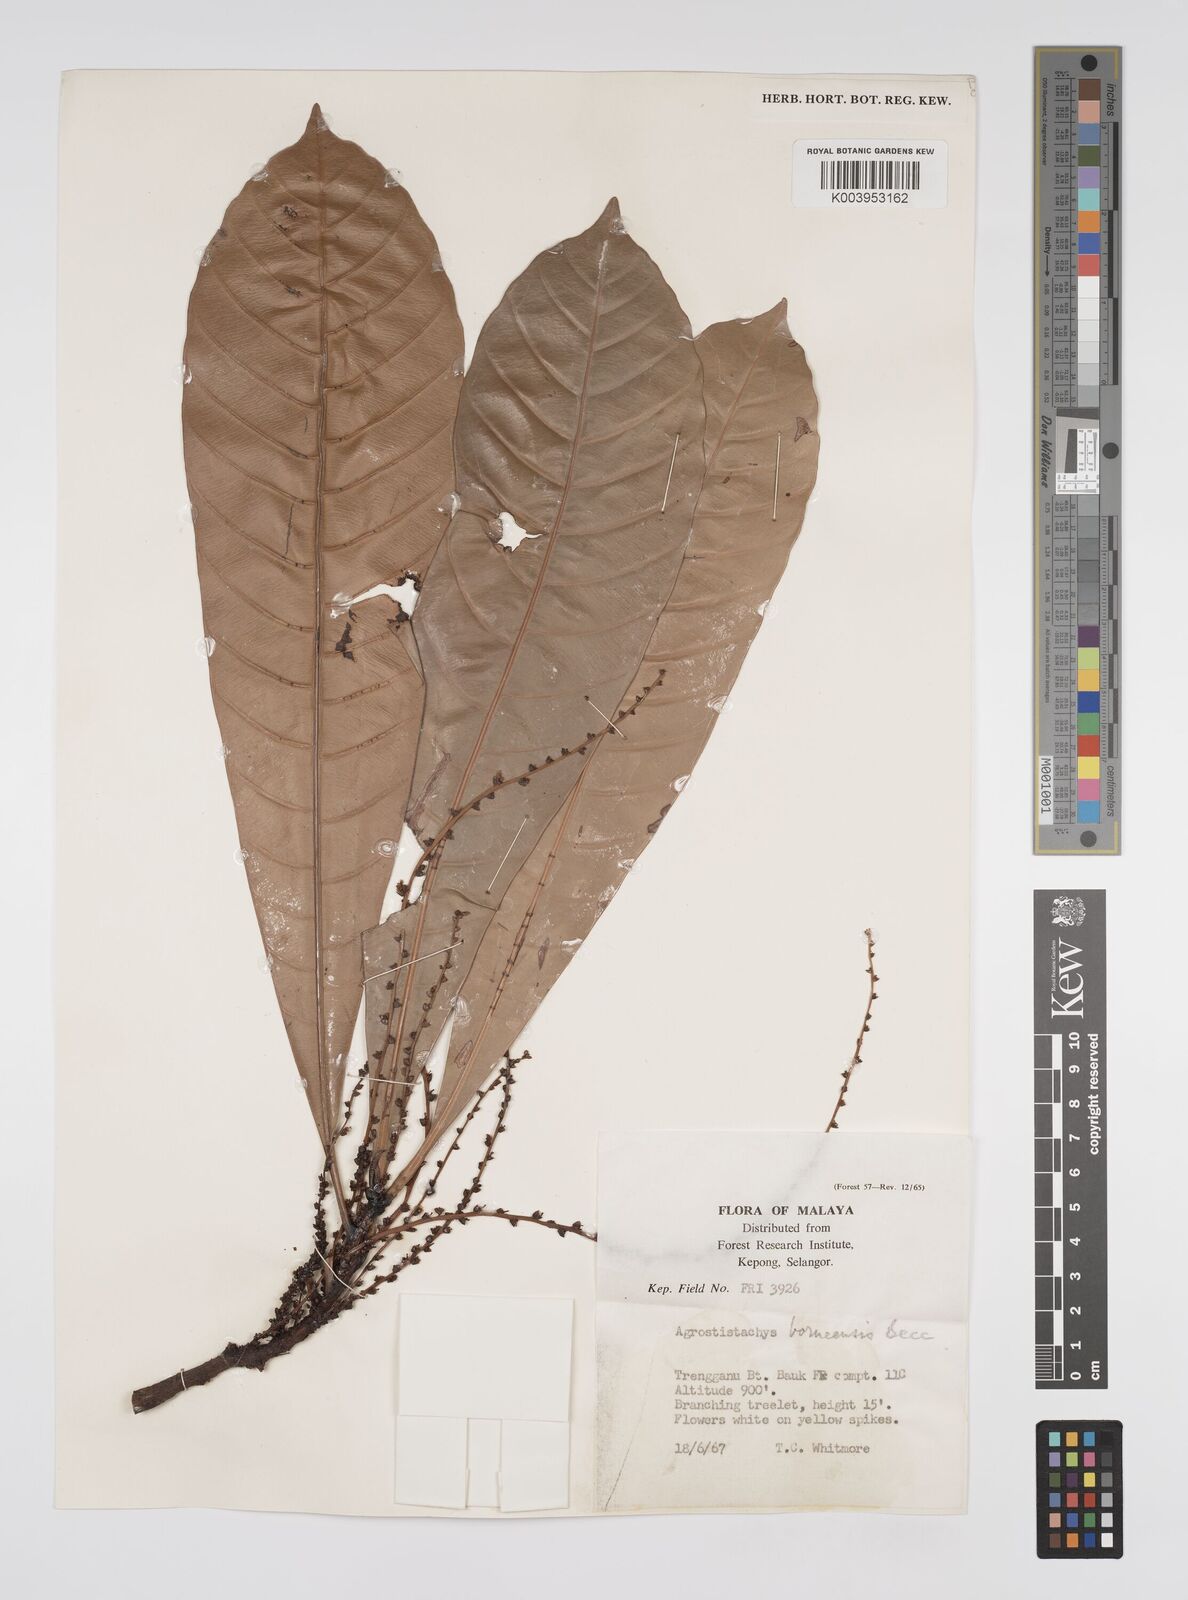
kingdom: Plantae
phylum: Tracheophyta
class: Magnoliopsida
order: Malpighiales
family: Euphorbiaceae
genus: Agrostistachys
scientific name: Agrostistachys borneensis
